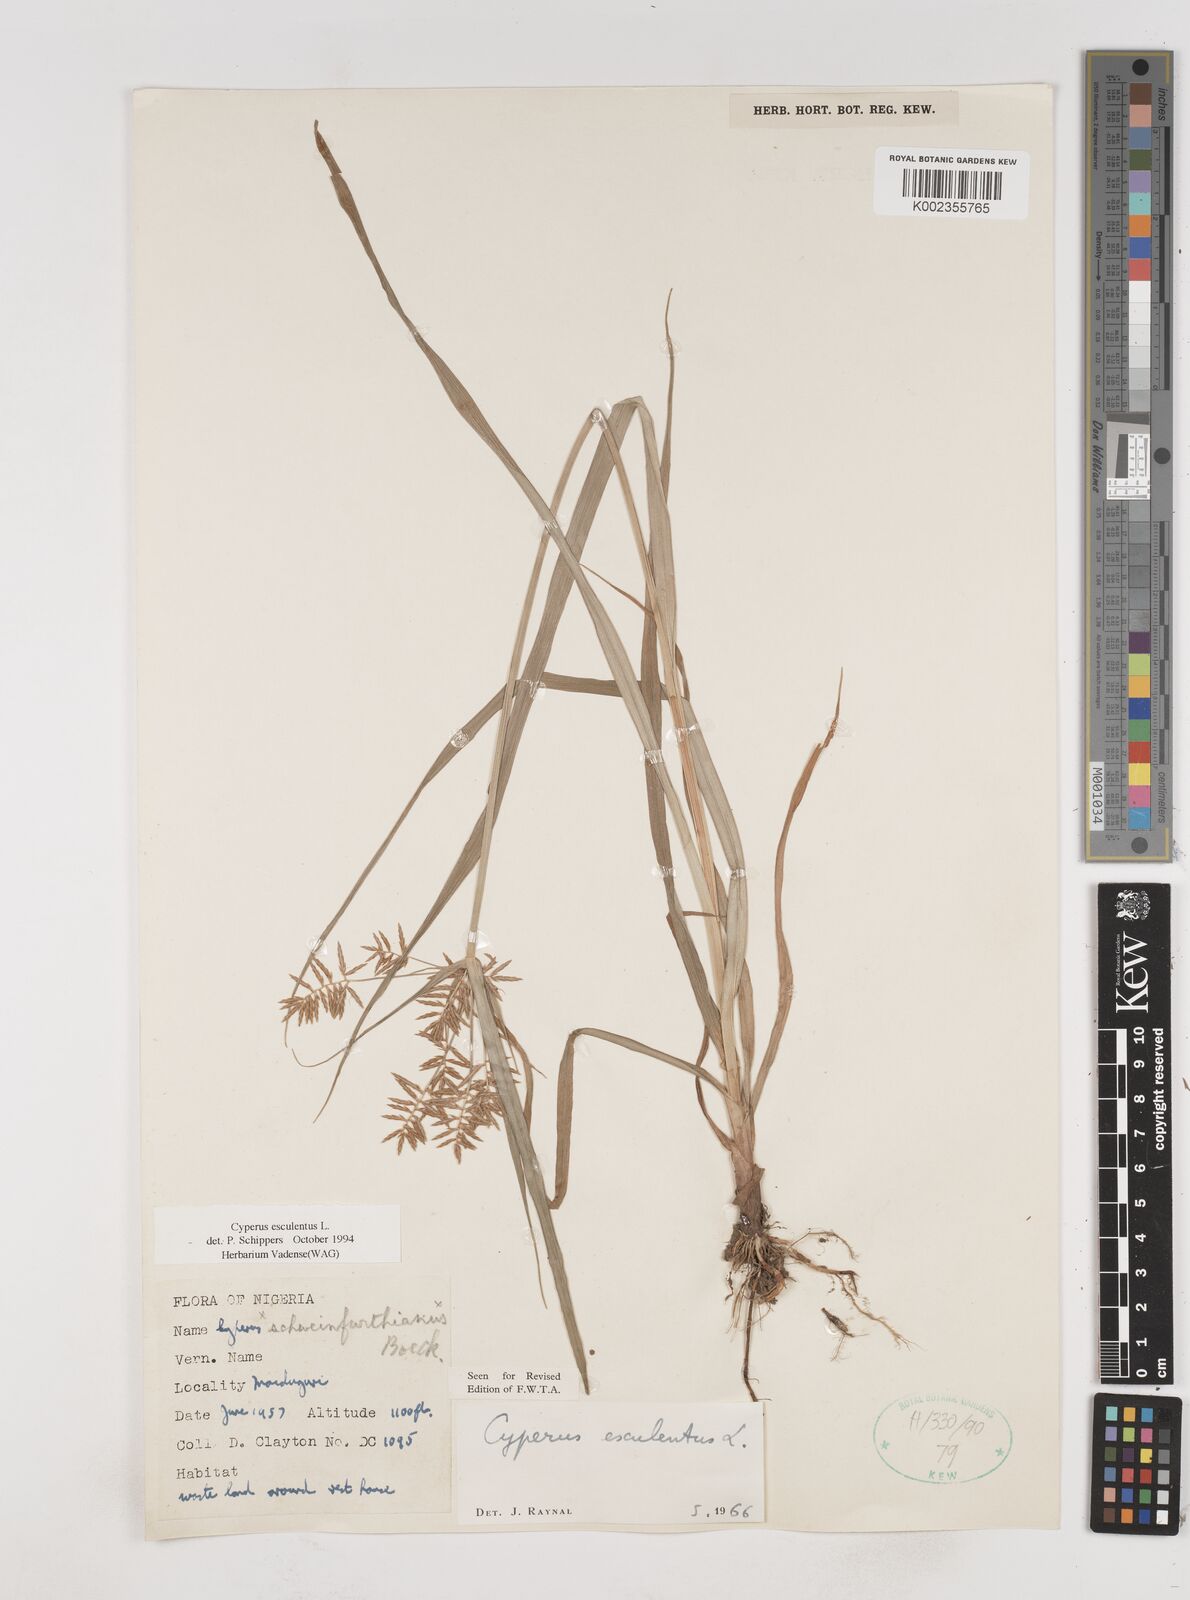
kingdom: Plantae
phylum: Tracheophyta
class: Liliopsida
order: Poales
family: Cyperaceae
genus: Cyperus
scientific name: Cyperus esculentus
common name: Yellow nutsedge
